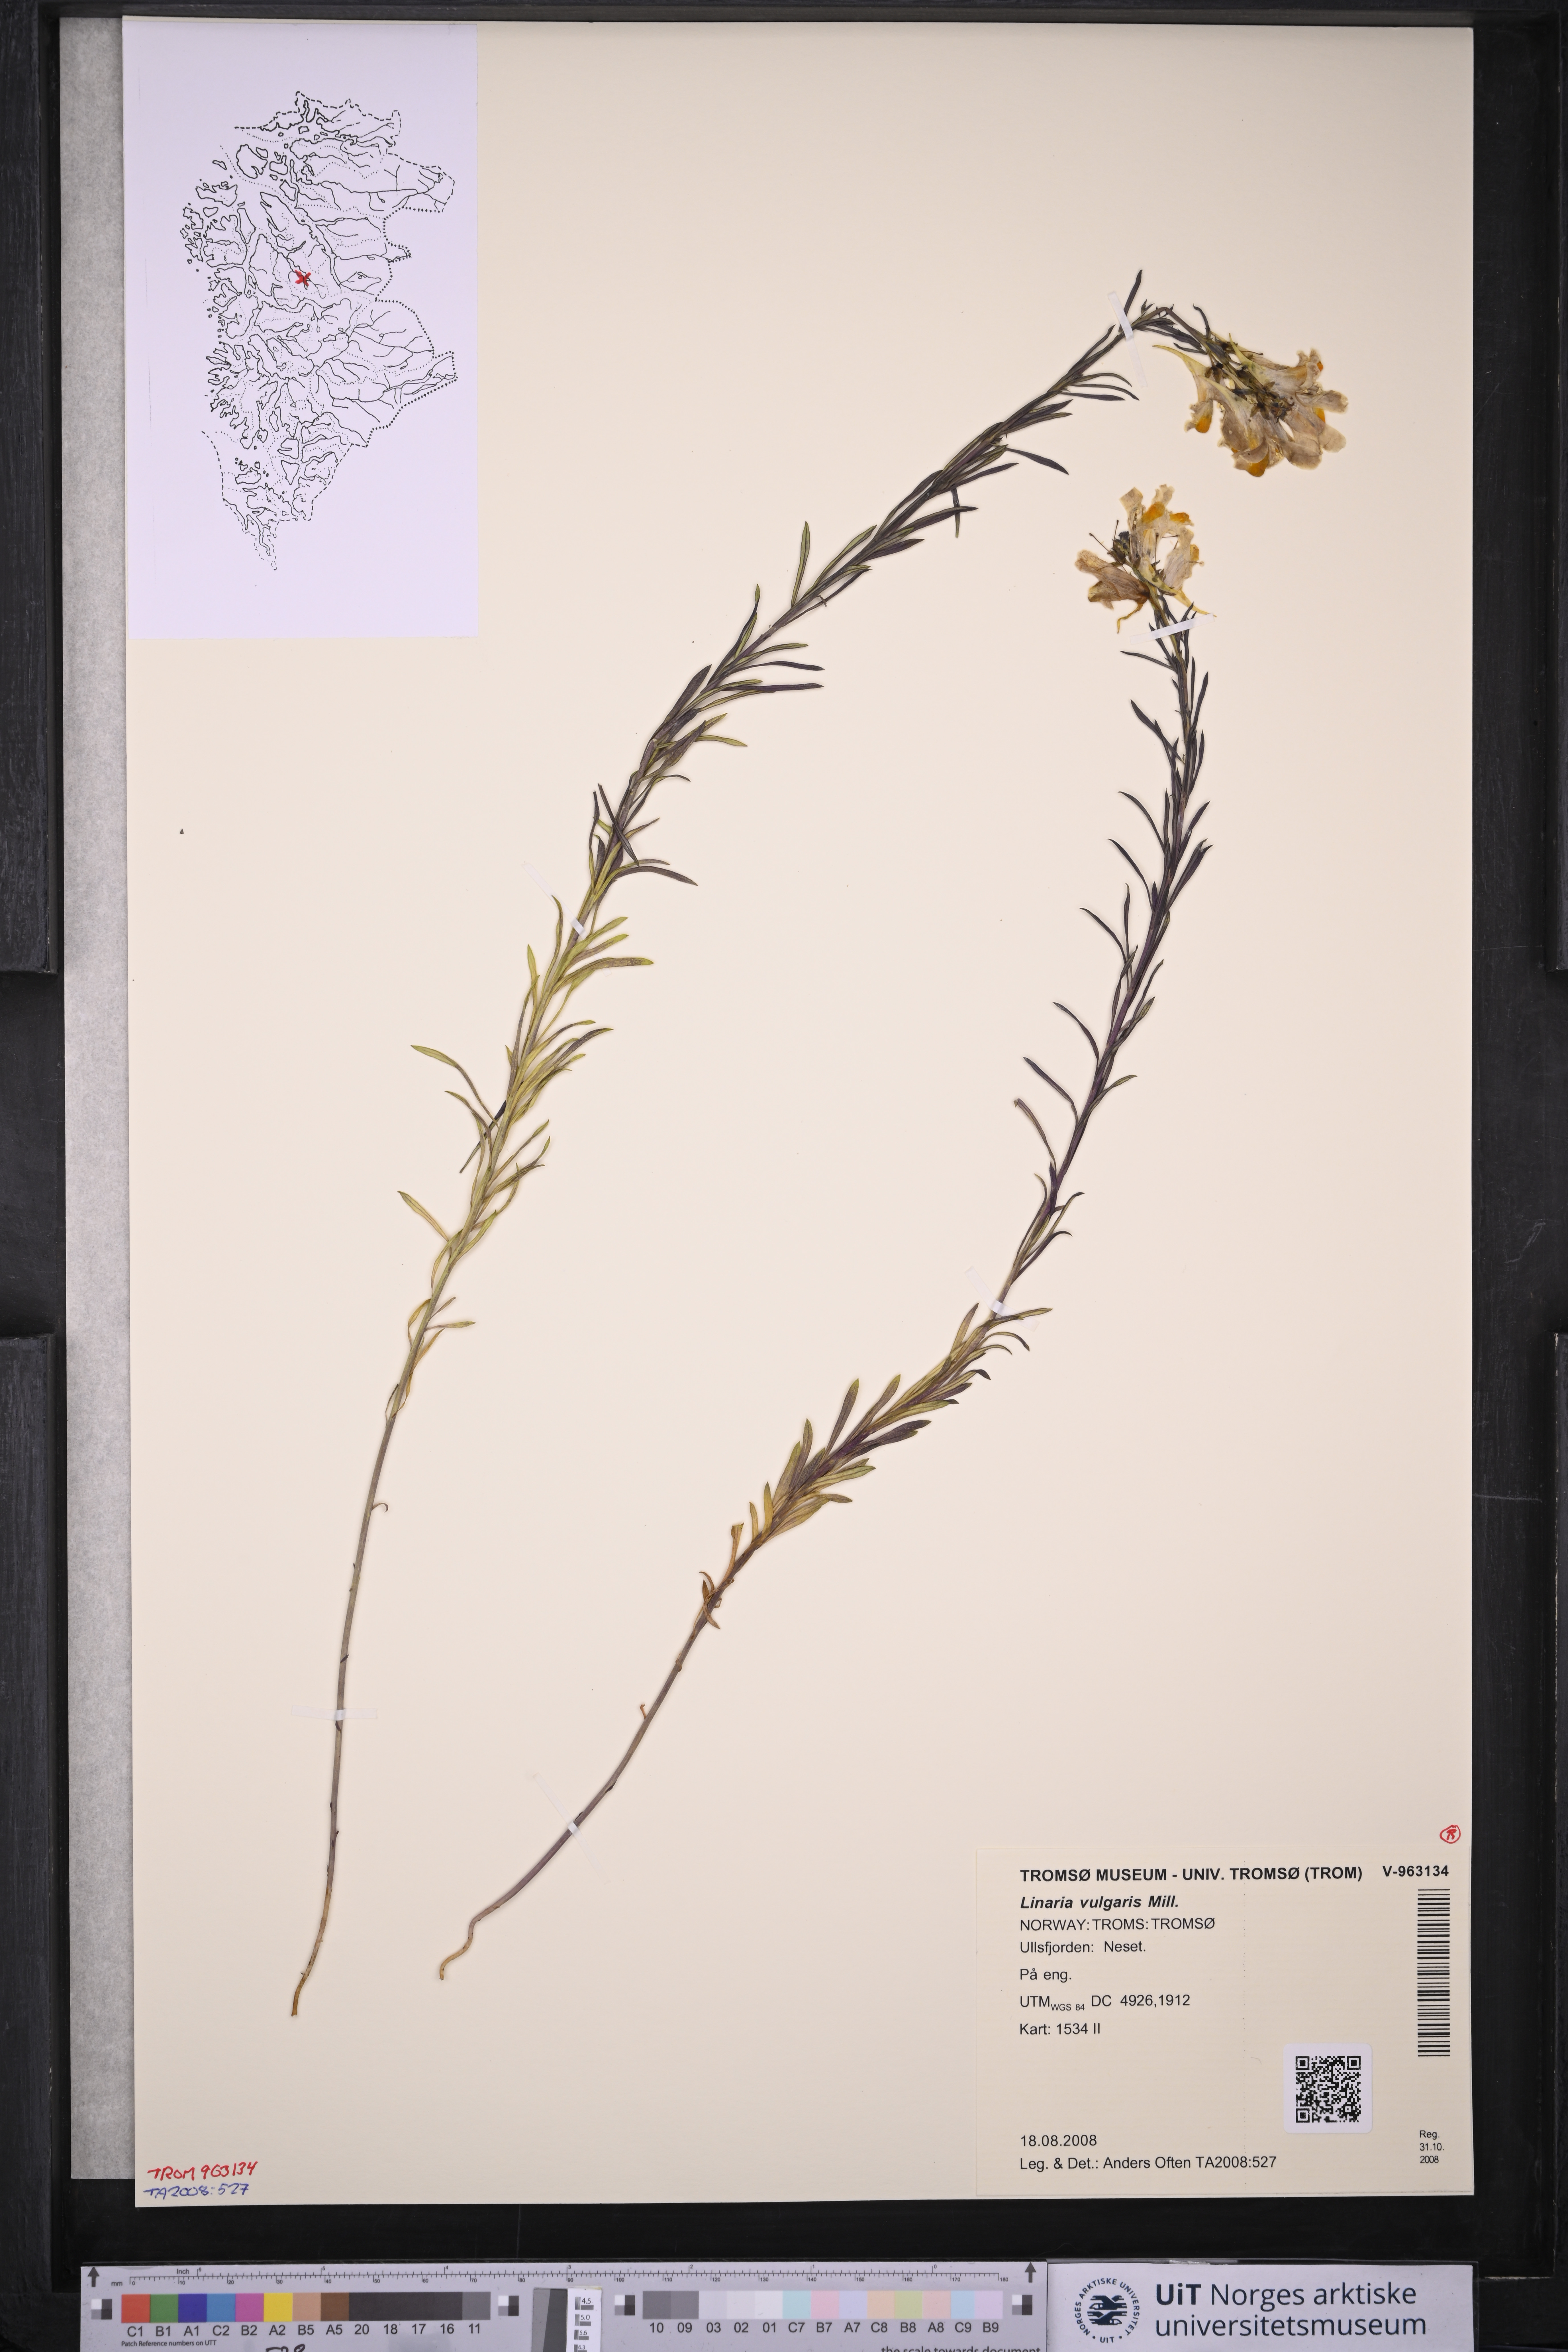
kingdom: Plantae
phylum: Tracheophyta
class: Magnoliopsida
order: Lamiales
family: Plantaginaceae
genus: Linaria
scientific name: Linaria vulgaris
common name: Butter and eggs
